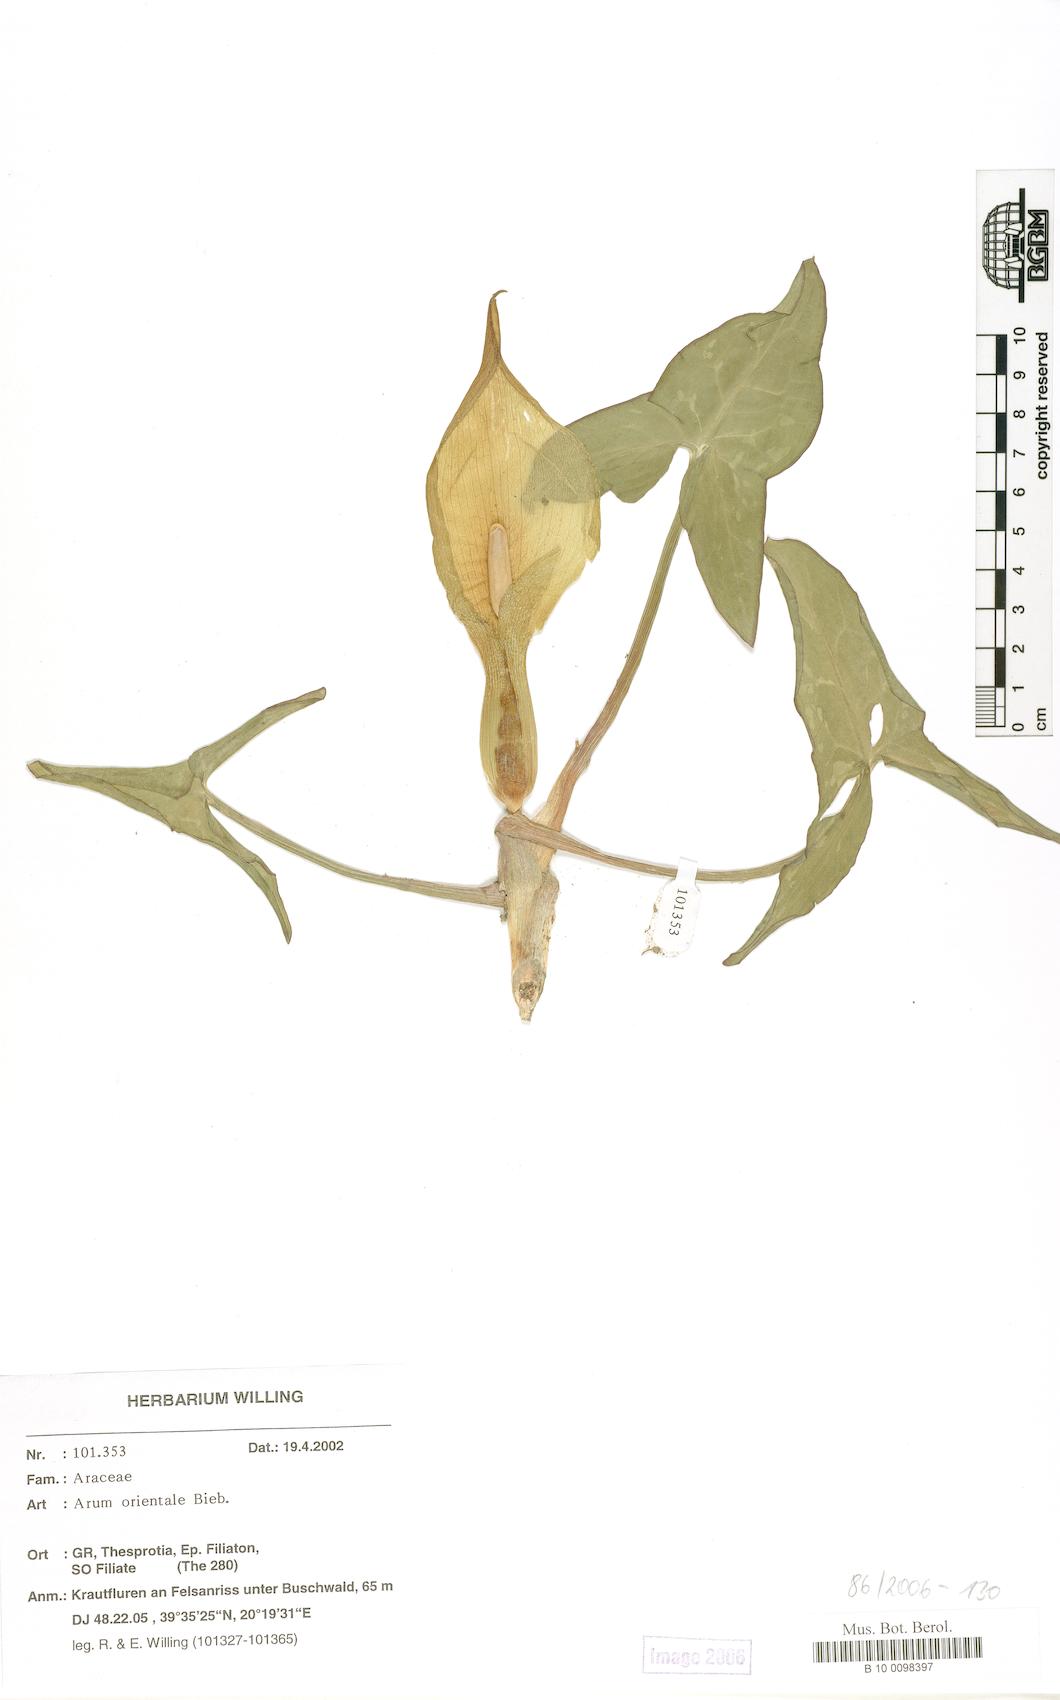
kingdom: Plantae
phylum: Tracheophyta
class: Liliopsida
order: Alismatales
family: Araceae
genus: Arum
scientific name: Arum orientale
